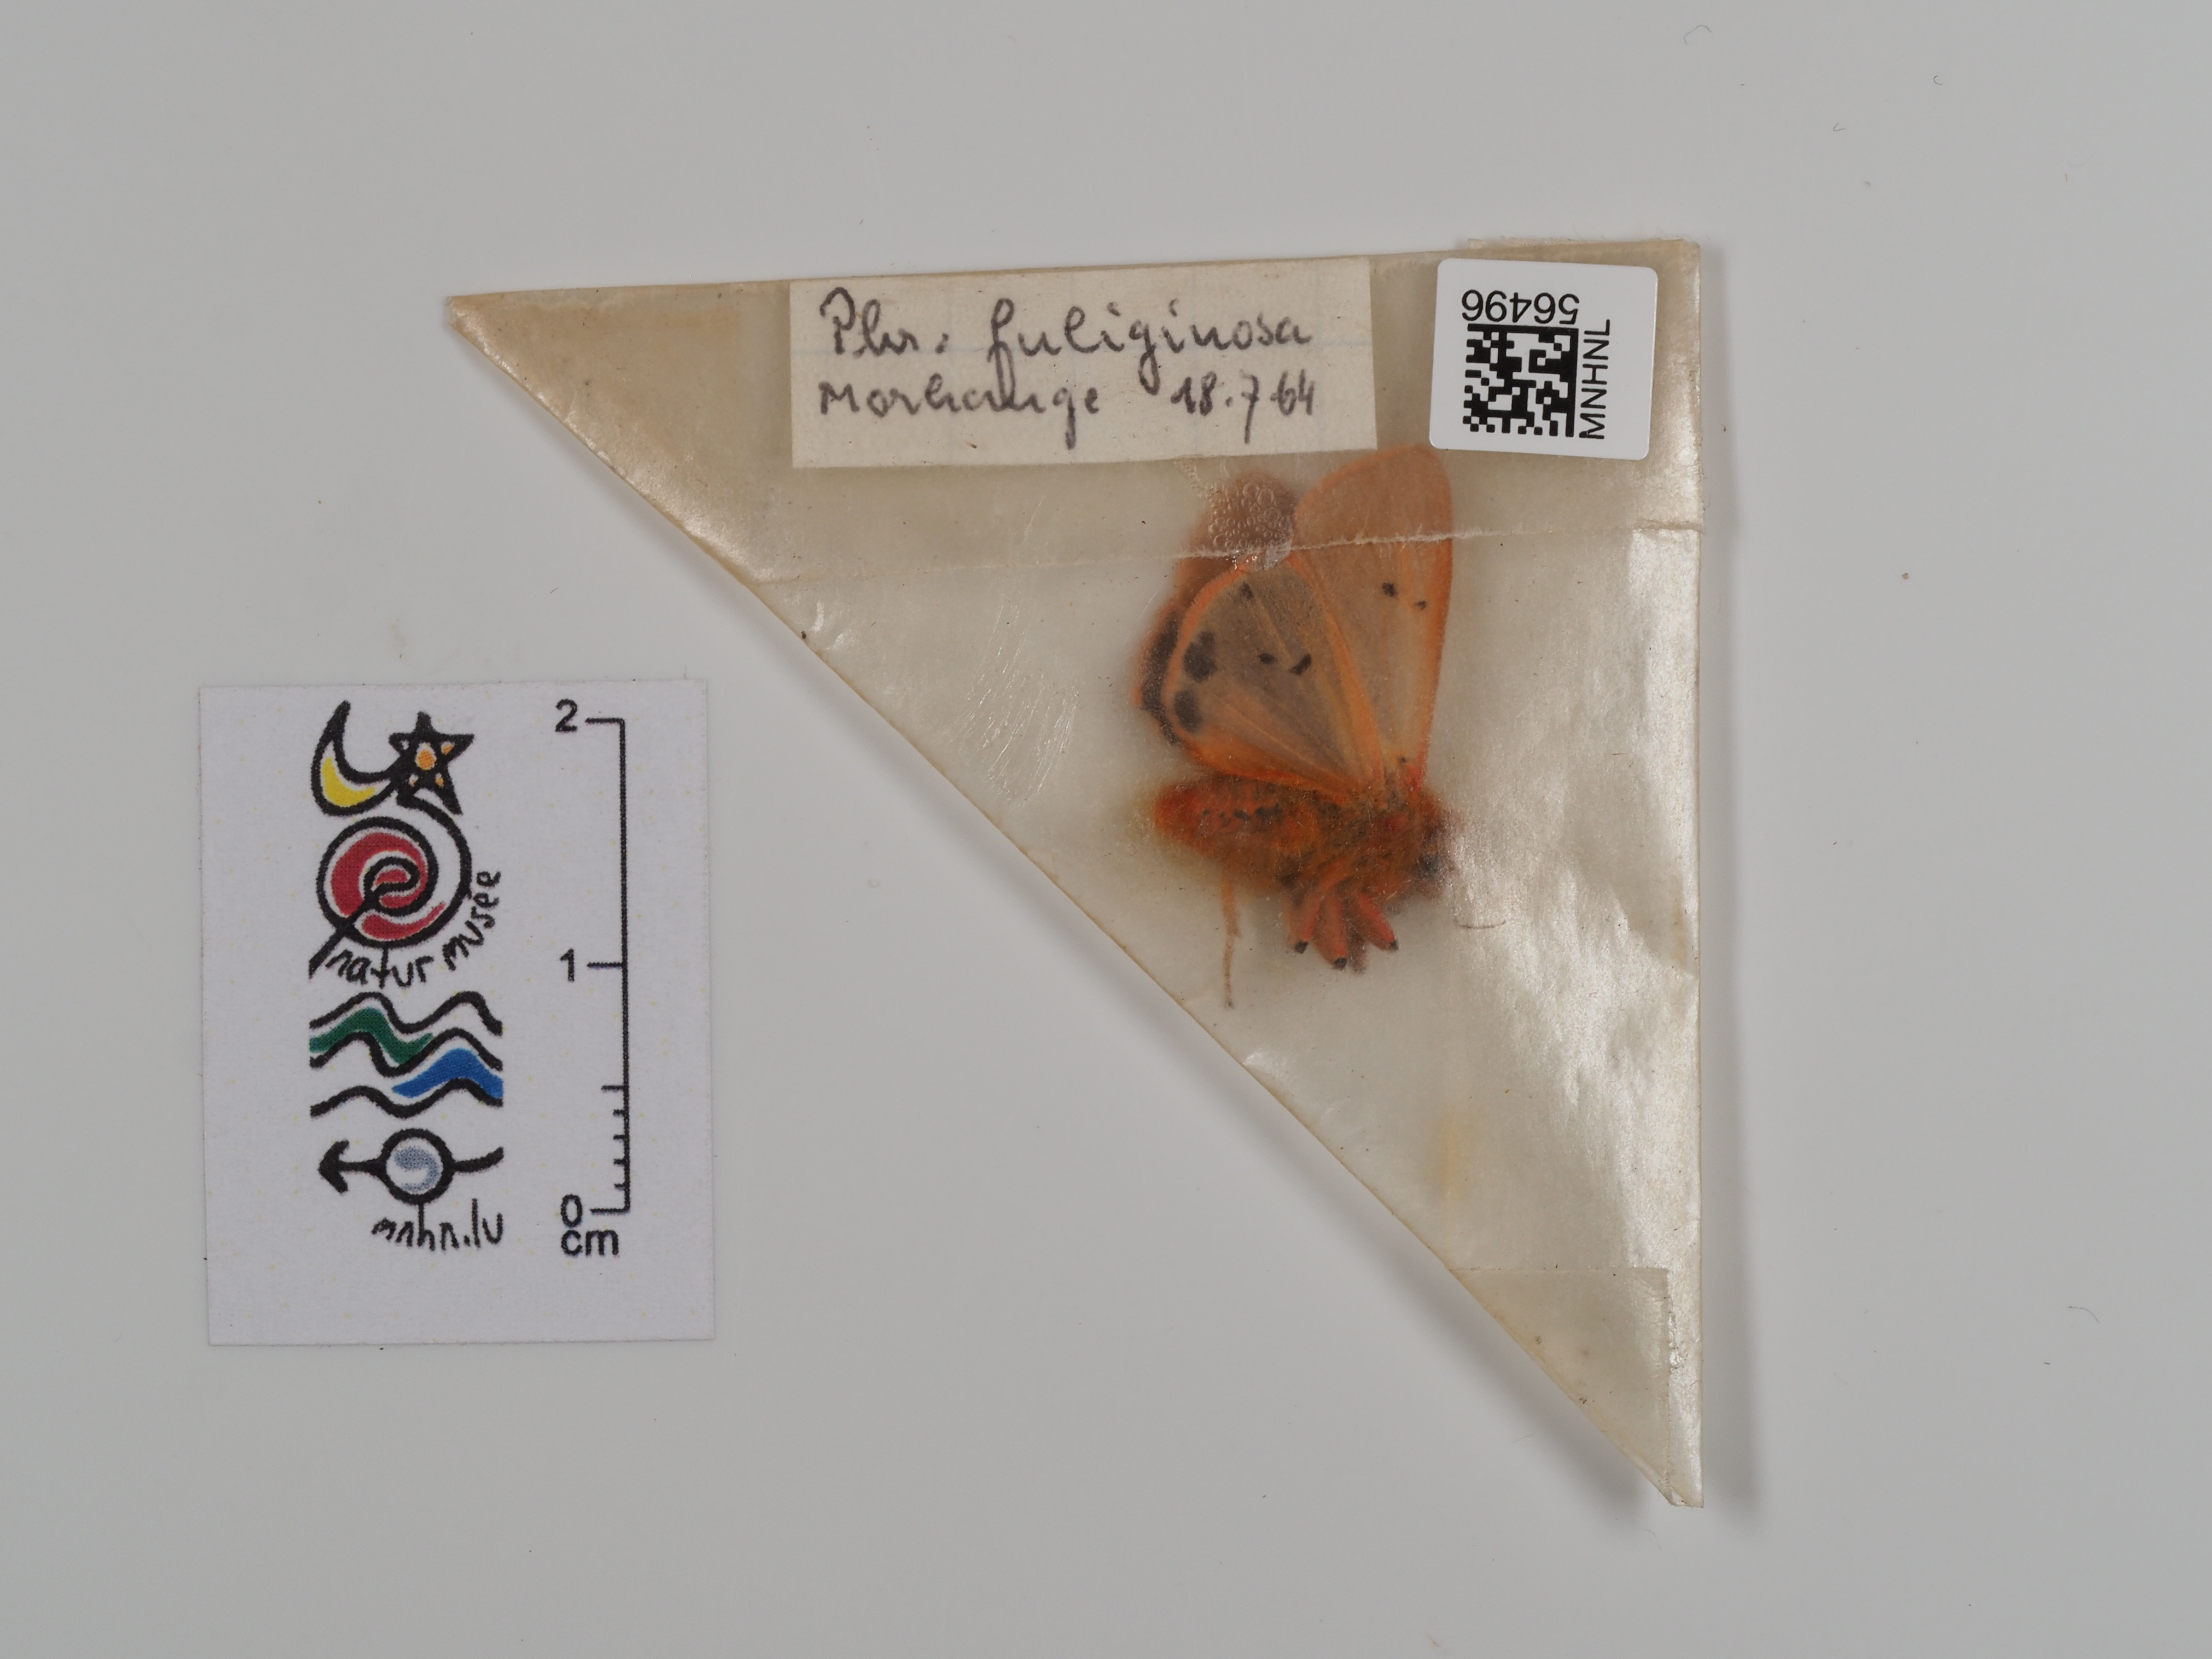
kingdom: Animalia
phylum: Arthropoda
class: Insecta
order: Lepidoptera
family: Erebidae
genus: Phragmatobia
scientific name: Phragmatobia fuliginosa
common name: Ruby tiger
